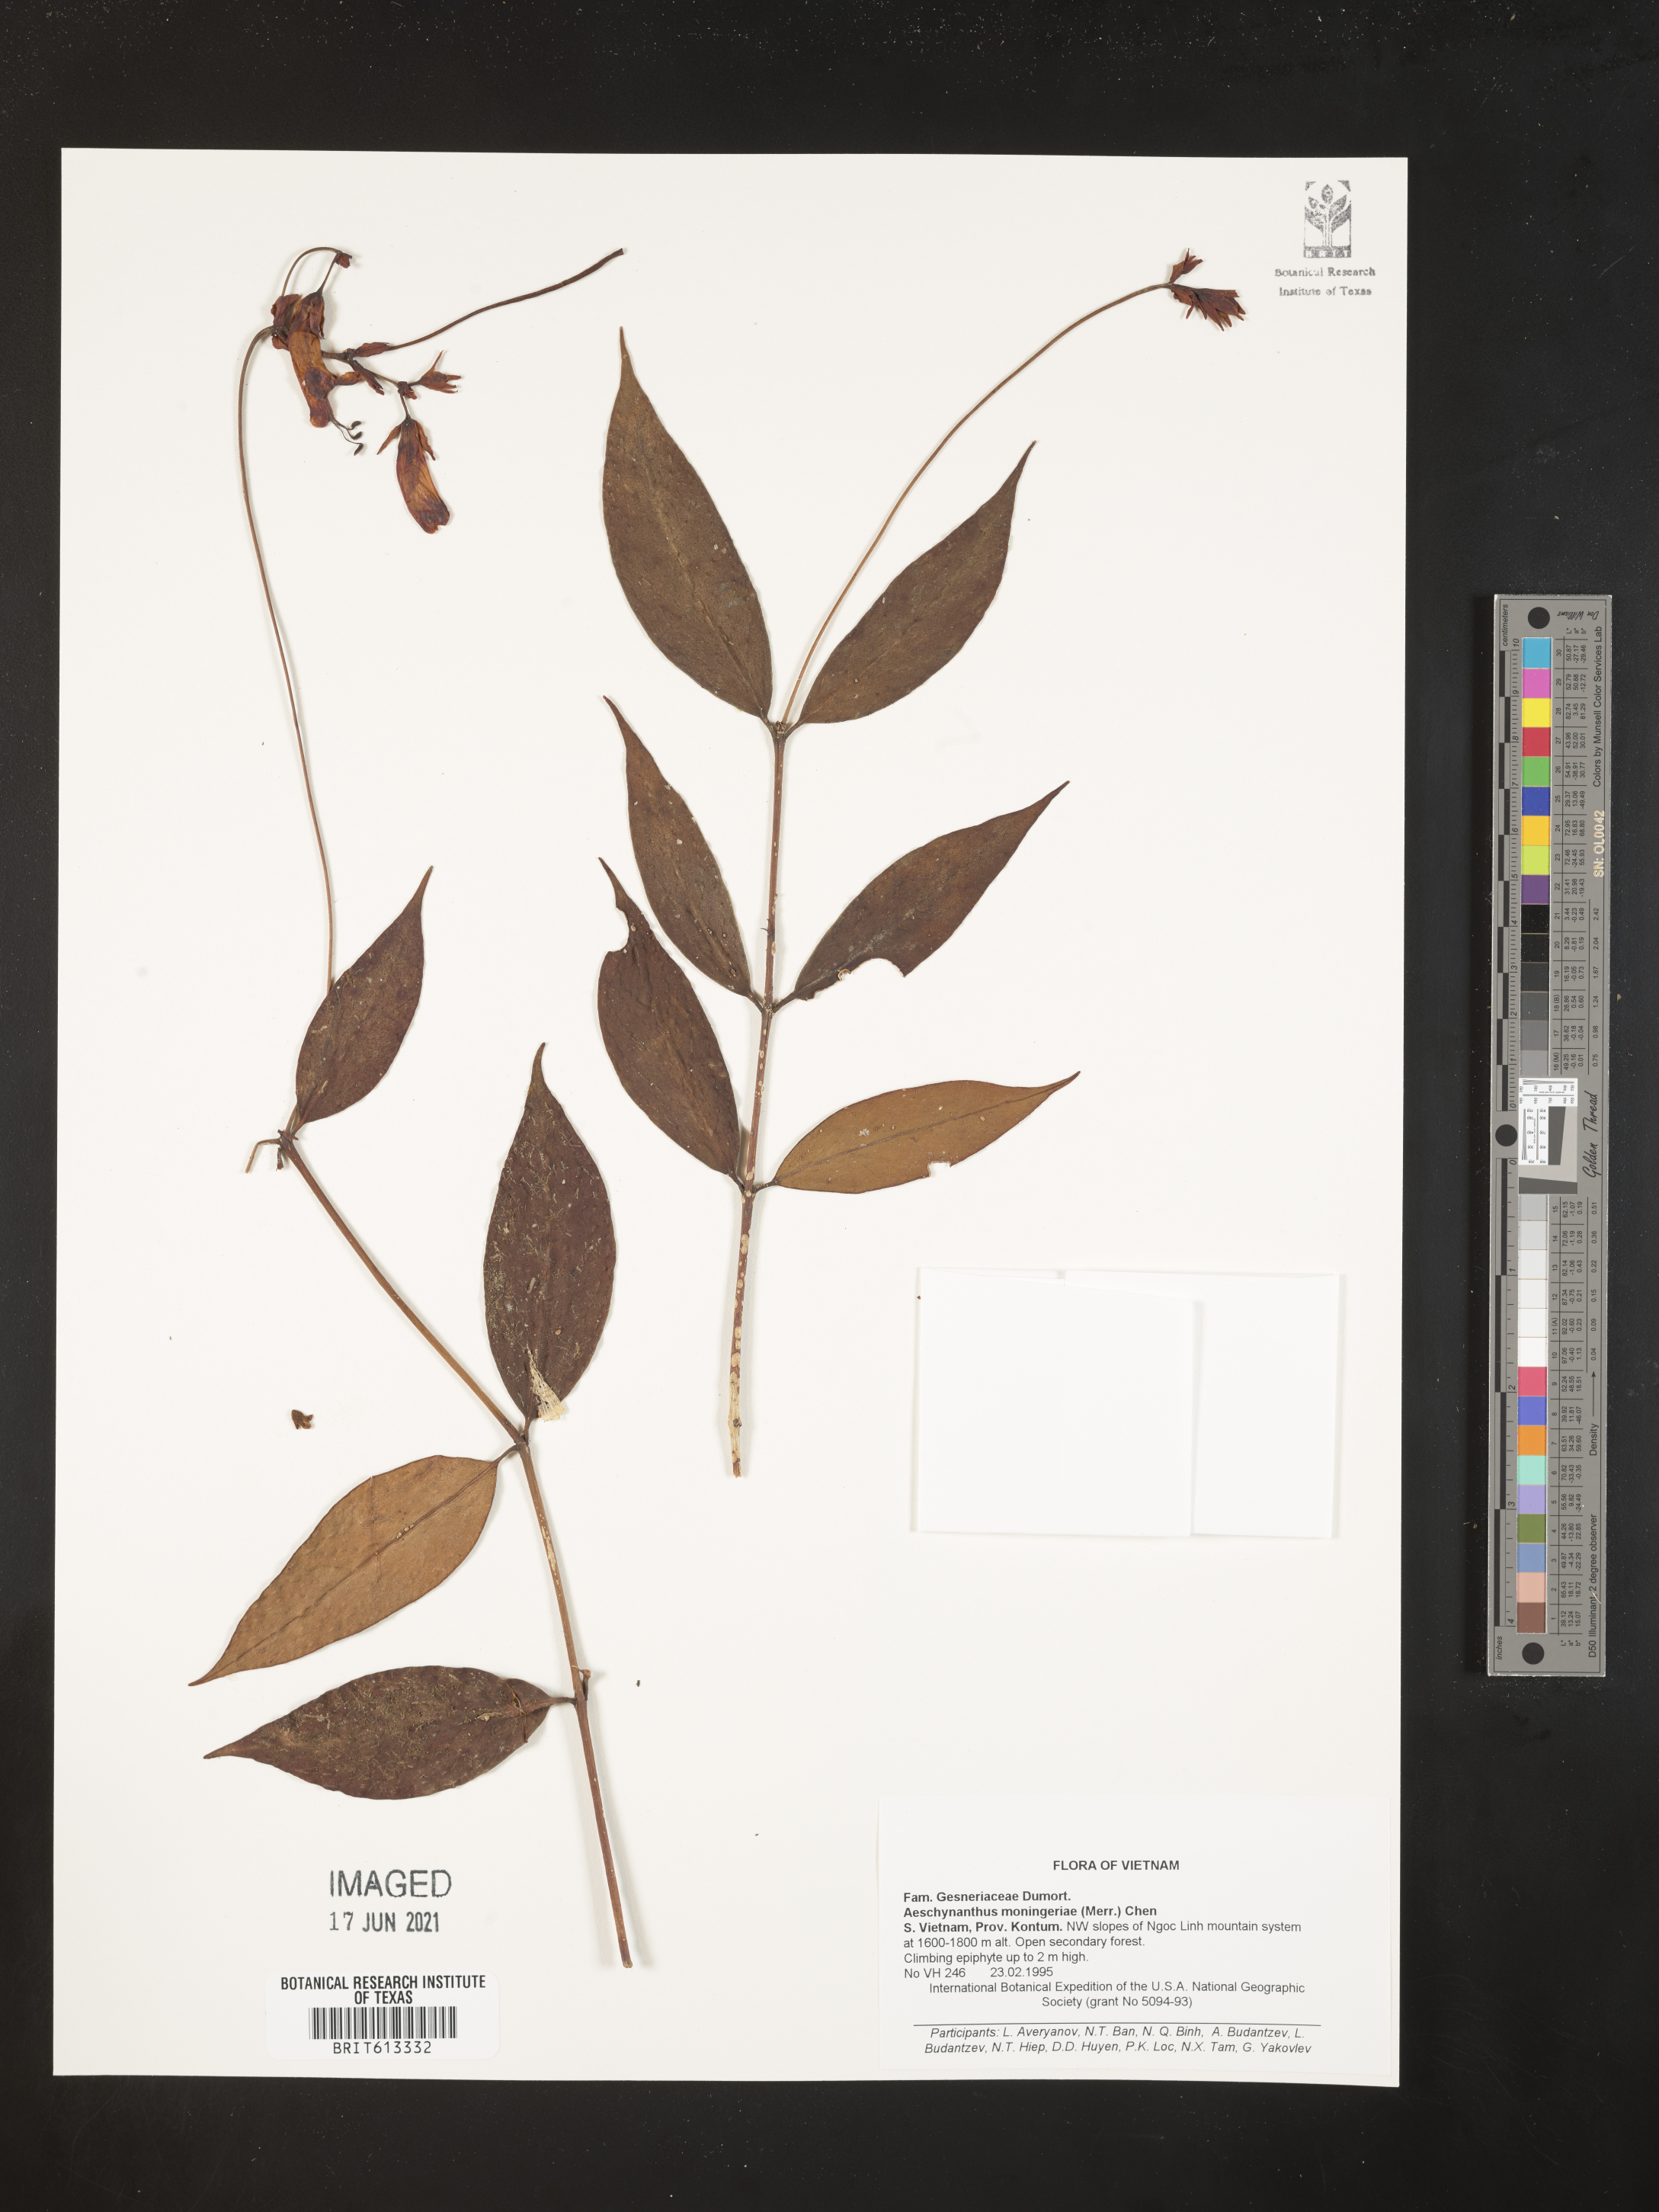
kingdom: Plantae
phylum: Tracheophyta
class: Magnoliopsida
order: Lamiales
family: Gesneriaceae
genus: Aeschynanthus
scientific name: Aeschynanthus moningeriae
